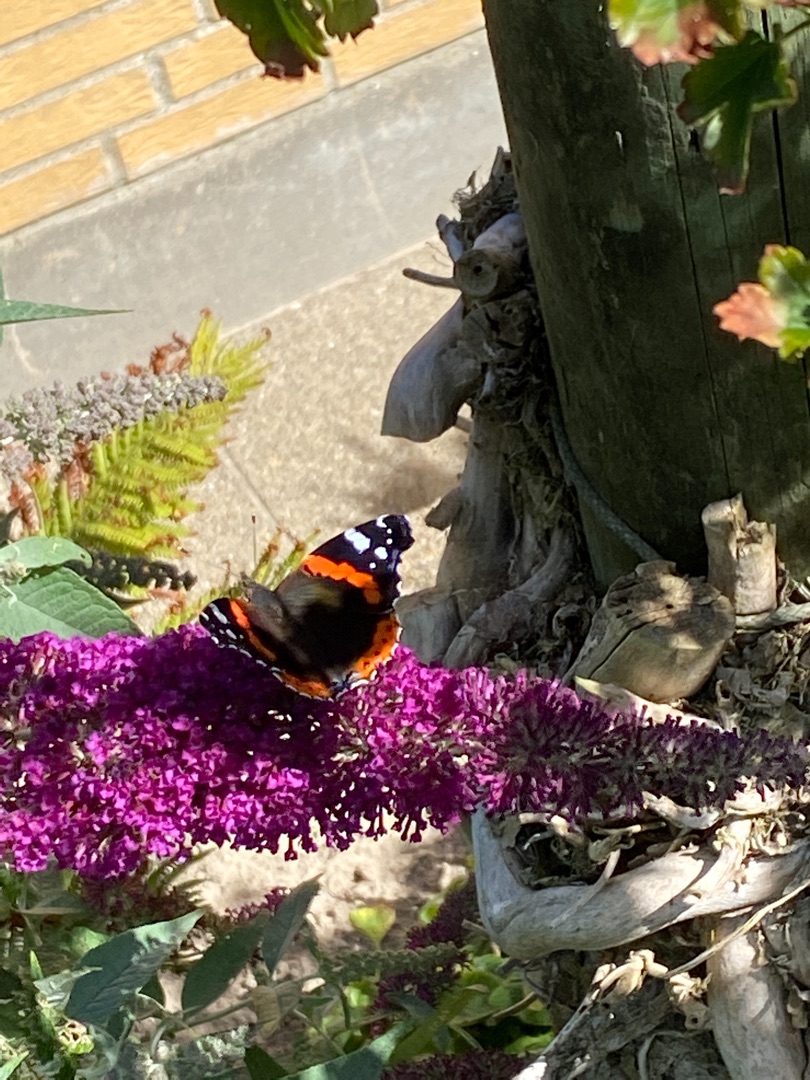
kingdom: Animalia
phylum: Arthropoda
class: Insecta
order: Lepidoptera
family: Nymphalidae
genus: Vanessa
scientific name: Vanessa atalanta
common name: Admiral
